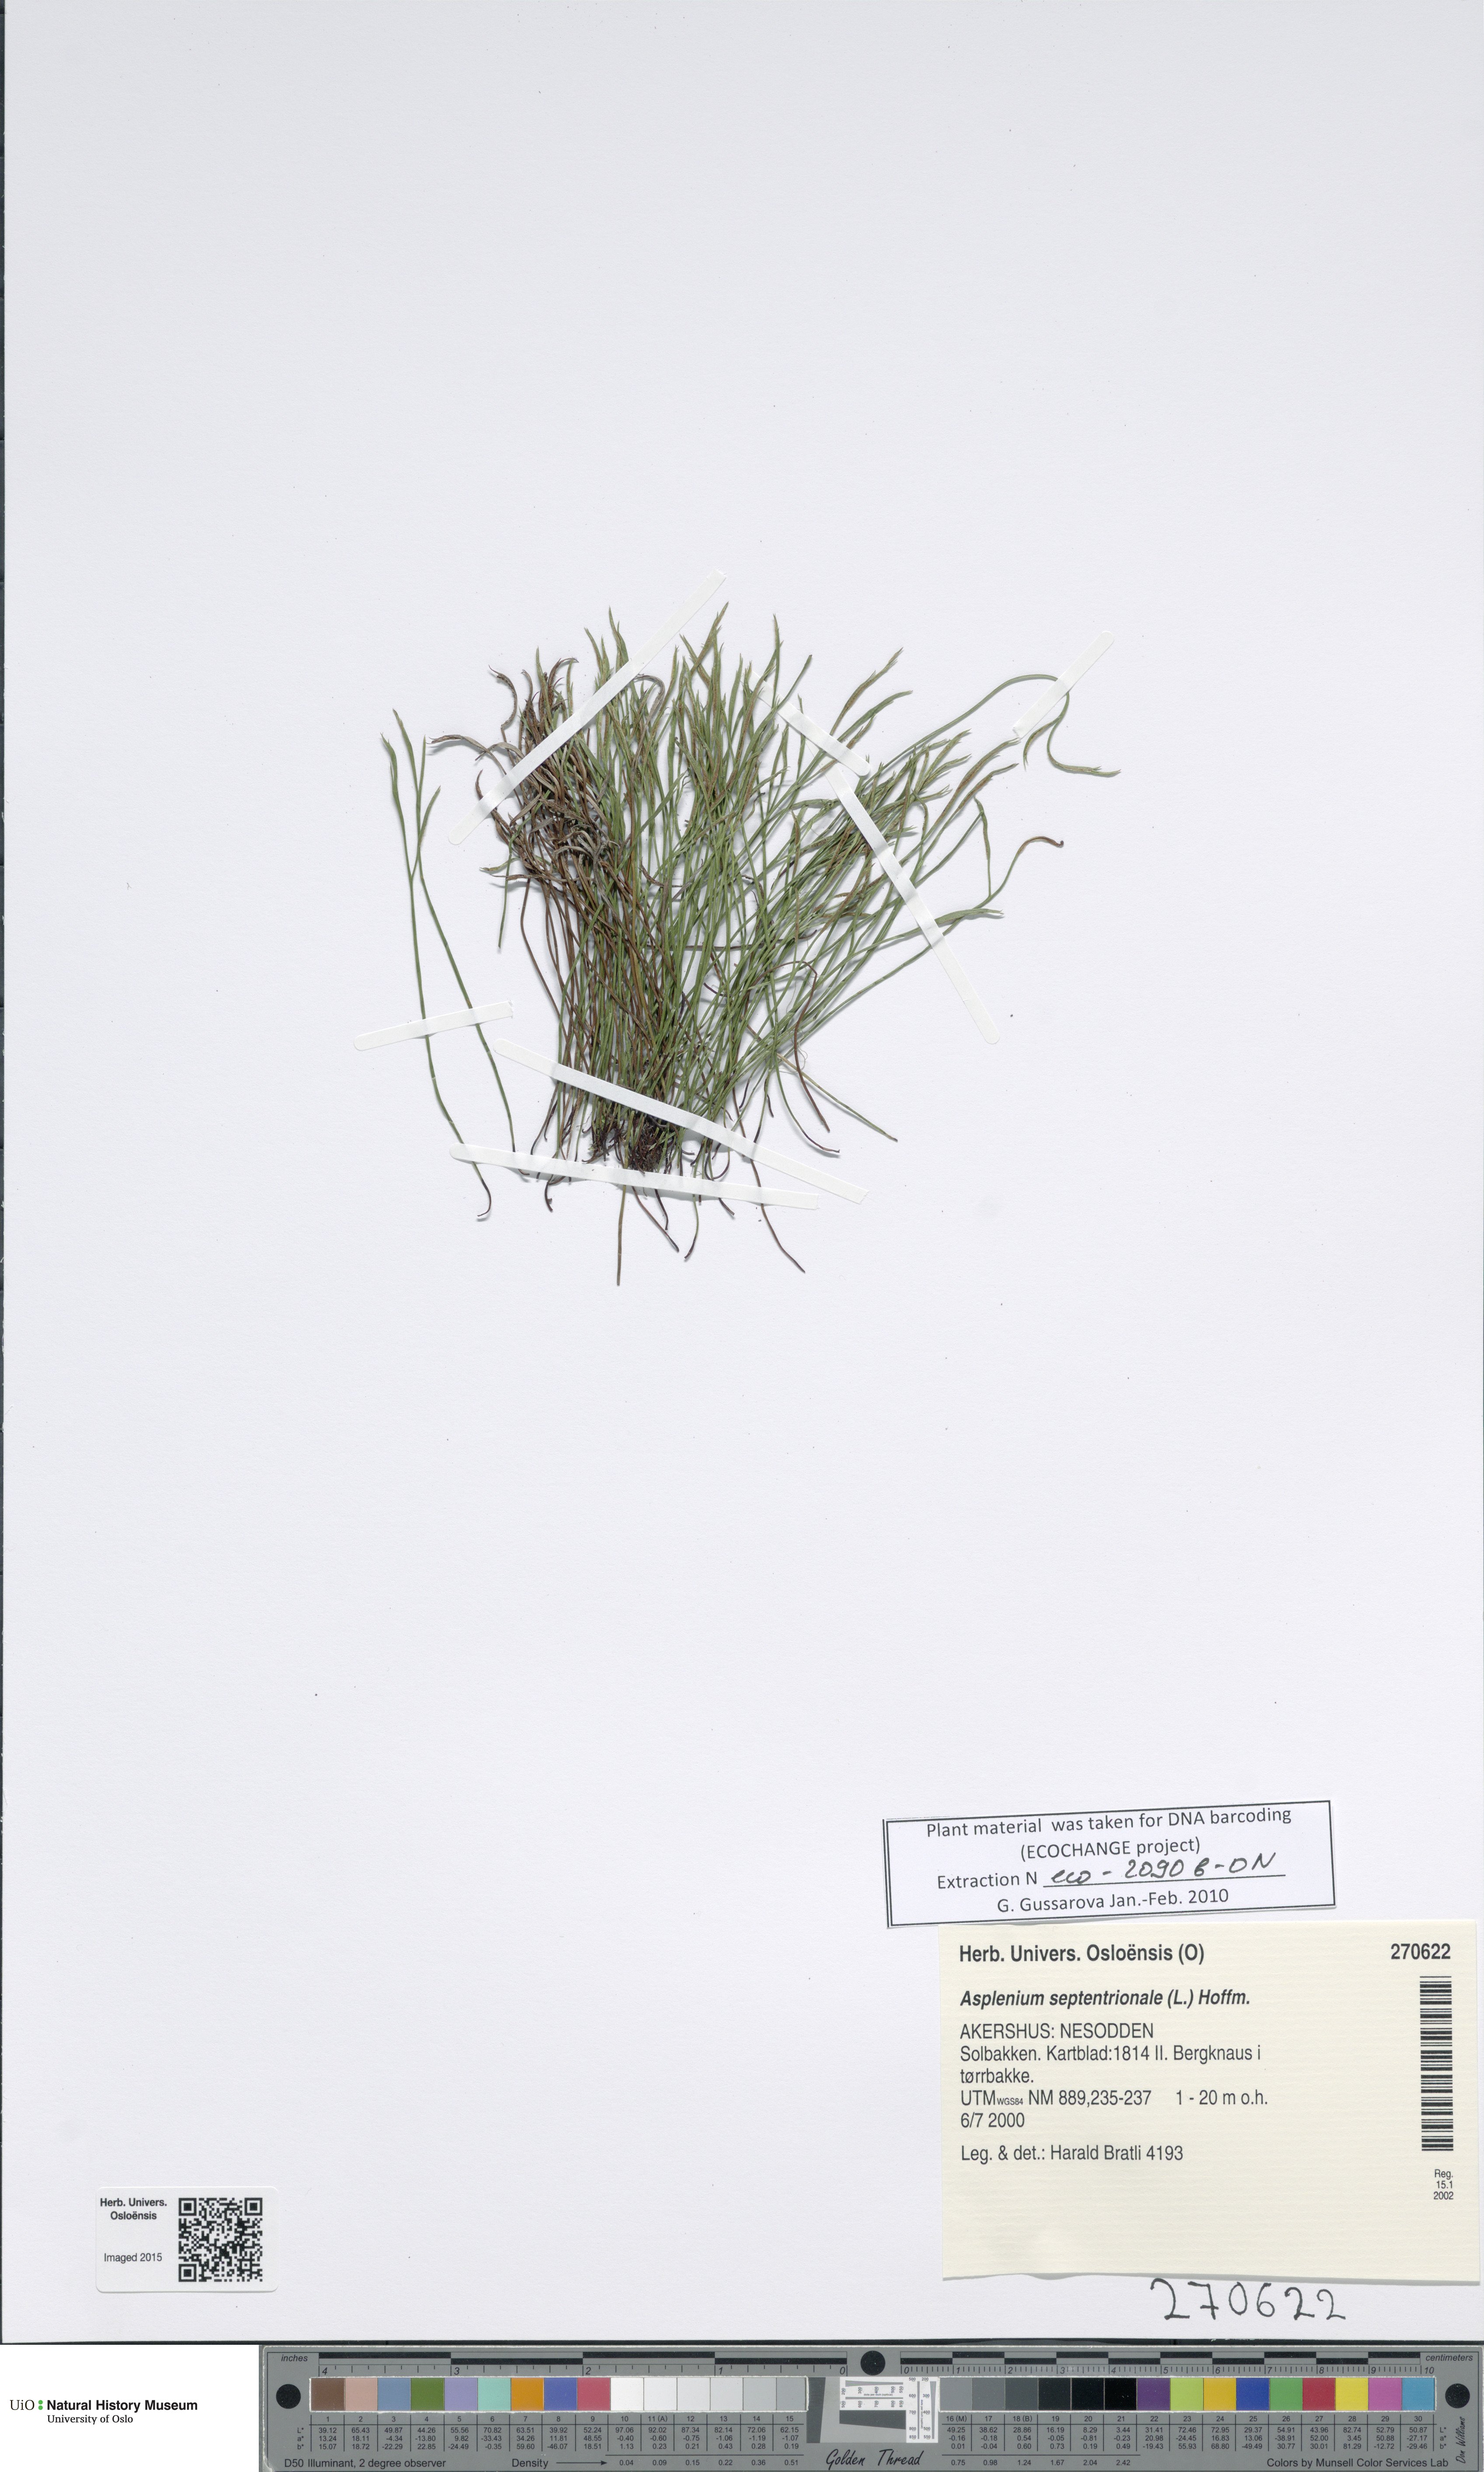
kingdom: Plantae
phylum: Tracheophyta
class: Polypodiopsida
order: Polypodiales
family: Aspleniaceae
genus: Asplenium
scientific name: Asplenium septentrionale
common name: Forked spleenwort
